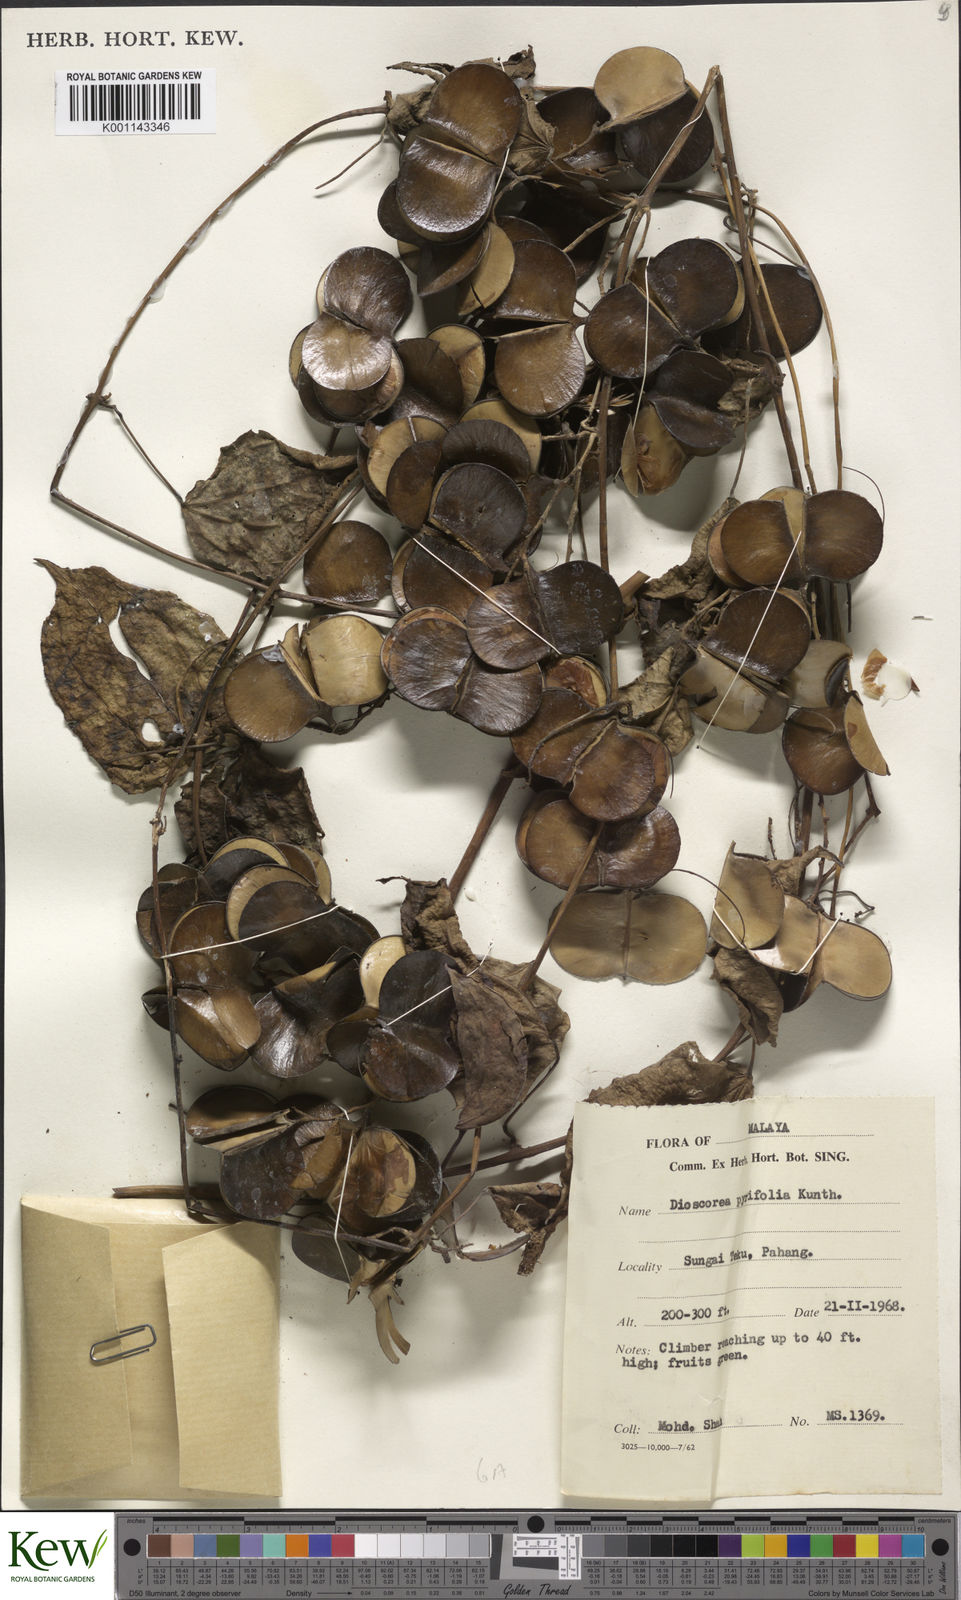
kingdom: Plantae
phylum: Tracheophyta
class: Liliopsida
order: Dioscoreales
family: Dioscoreaceae
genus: Dioscorea
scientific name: Dioscorea pyrifolia
